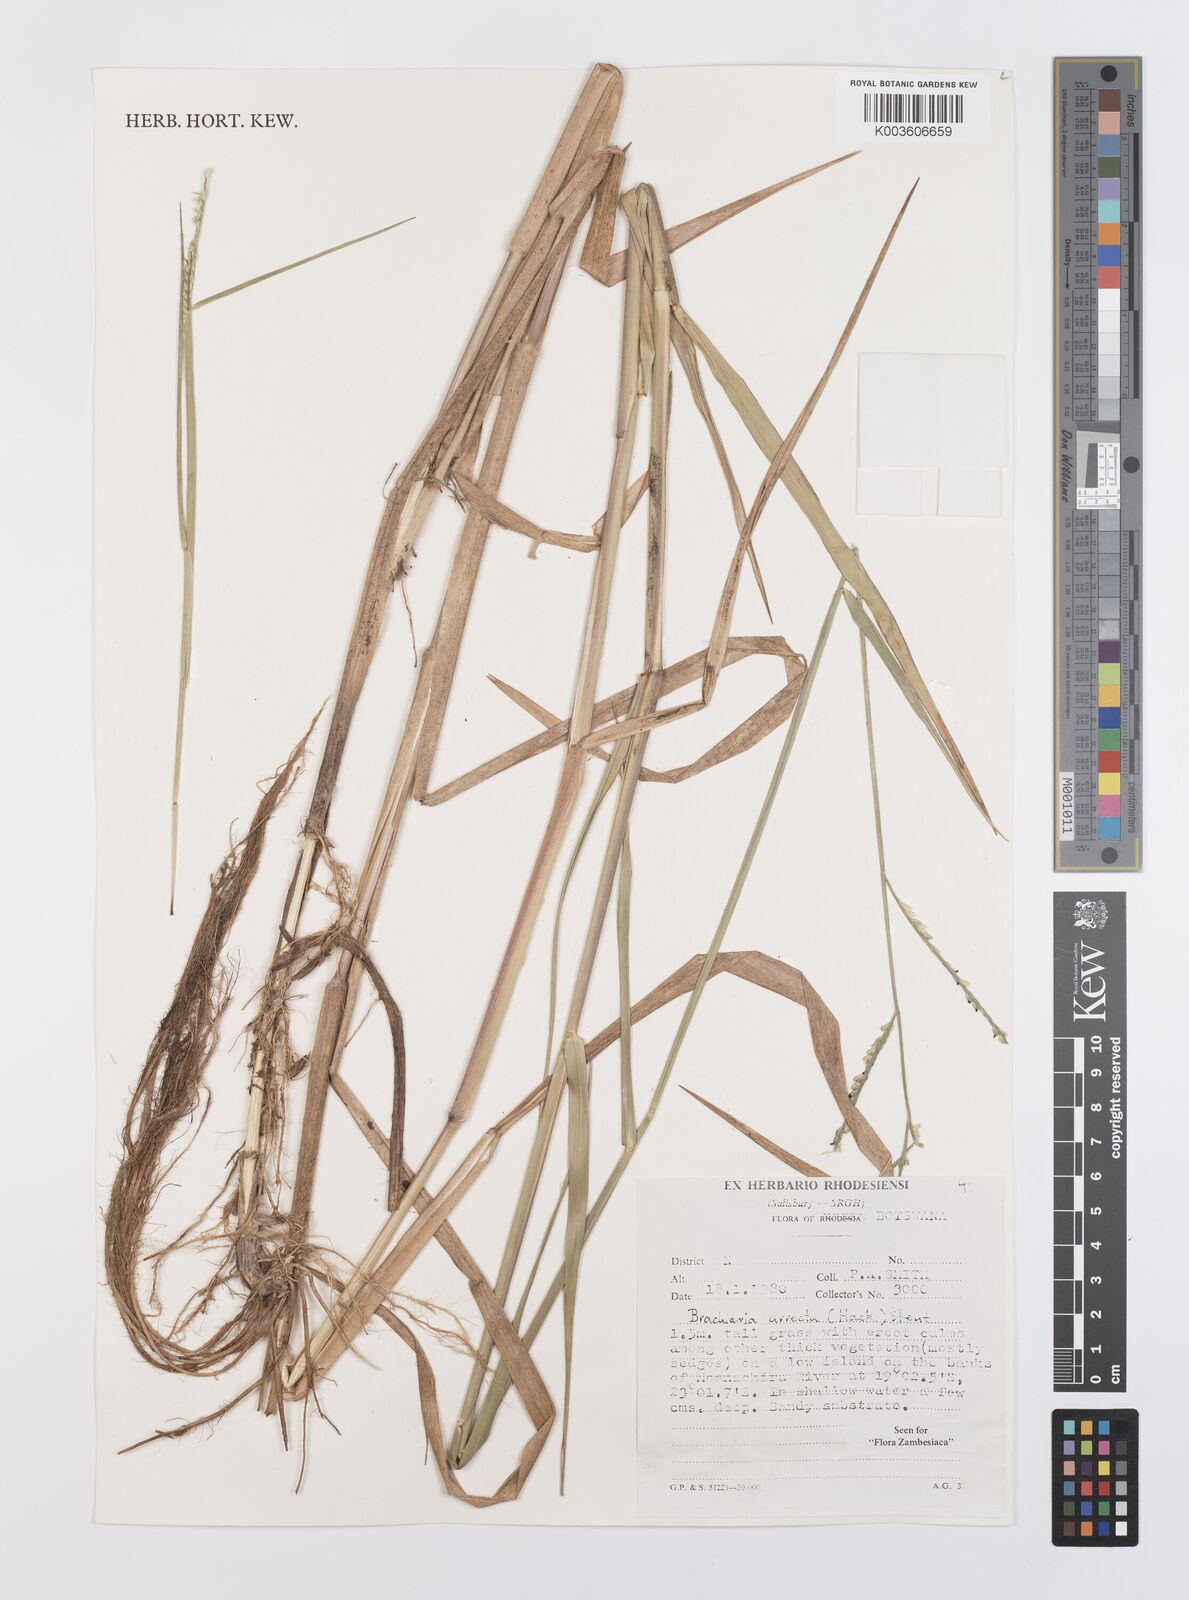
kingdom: Plantae
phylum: Tracheophyta
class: Liliopsida
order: Poales
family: Poaceae
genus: Urochloa
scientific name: Urochloa arrecta
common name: African signalgrass
